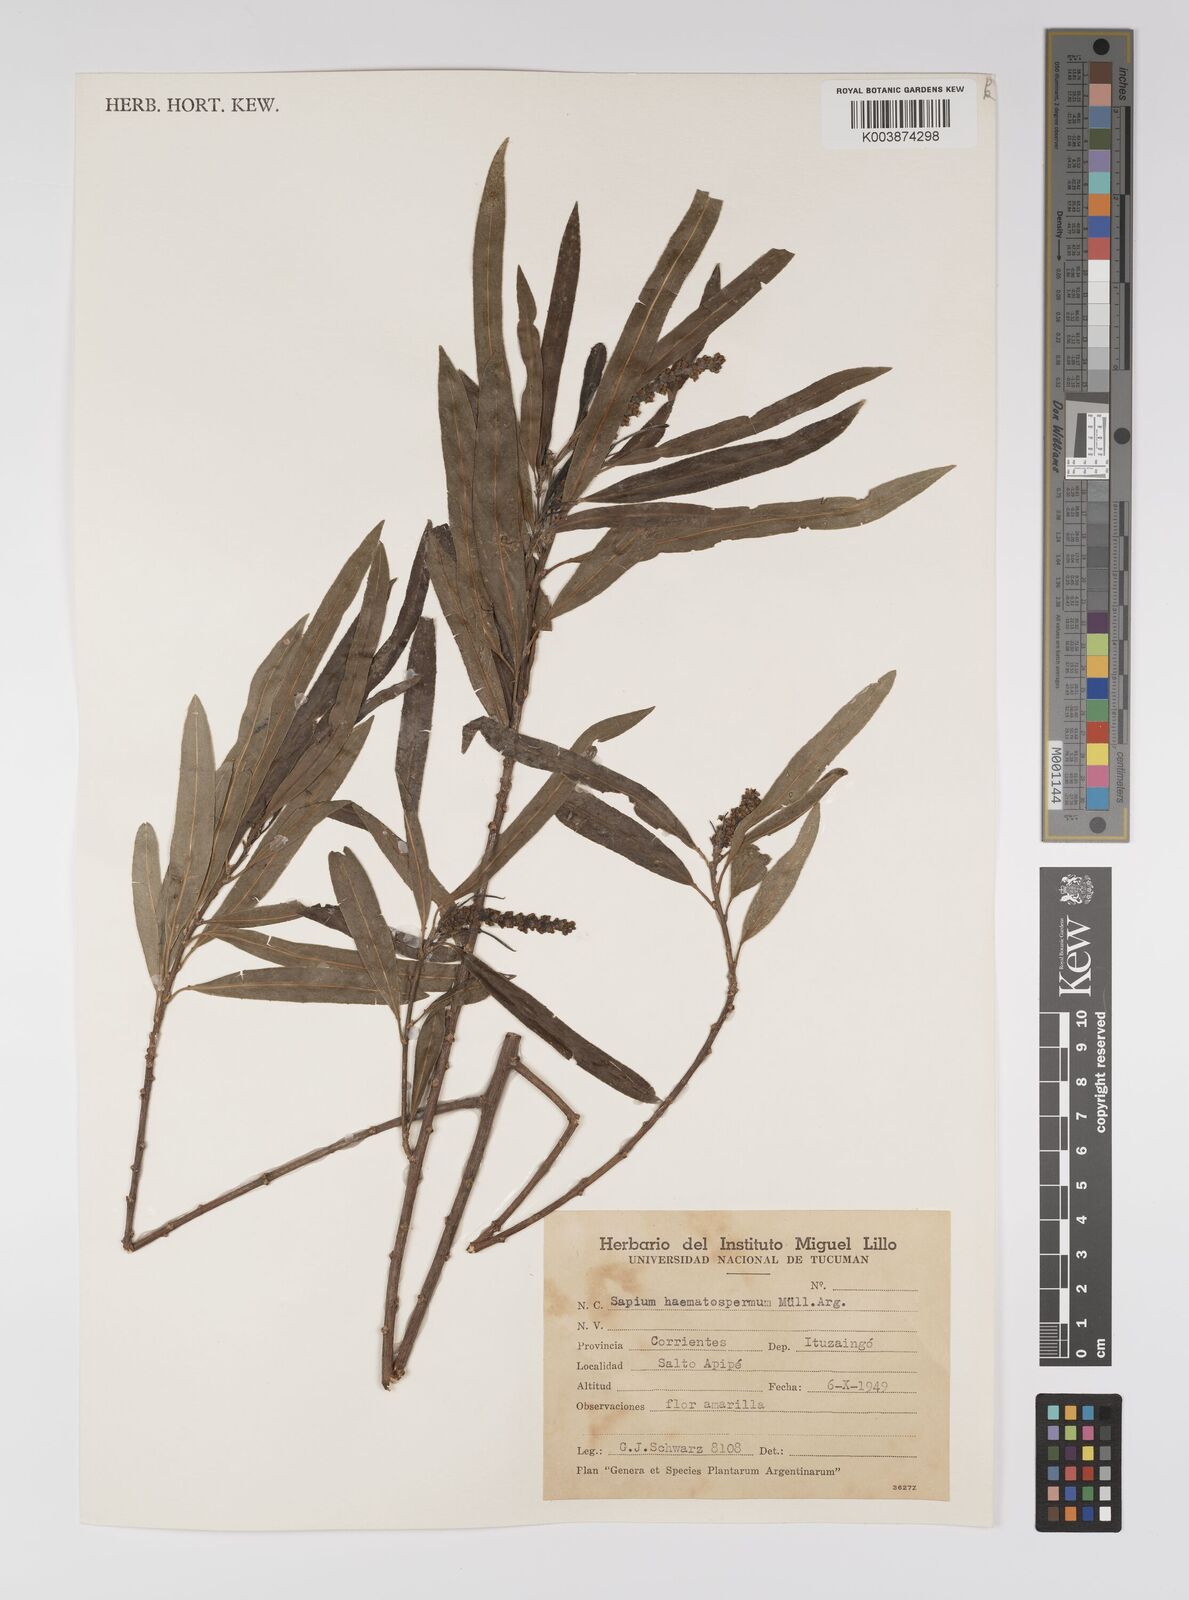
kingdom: Plantae
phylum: Tracheophyta
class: Magnoliopsida
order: Malpighiales
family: Euphorbiaceae
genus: Sapium
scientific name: Sapium haematospermum
